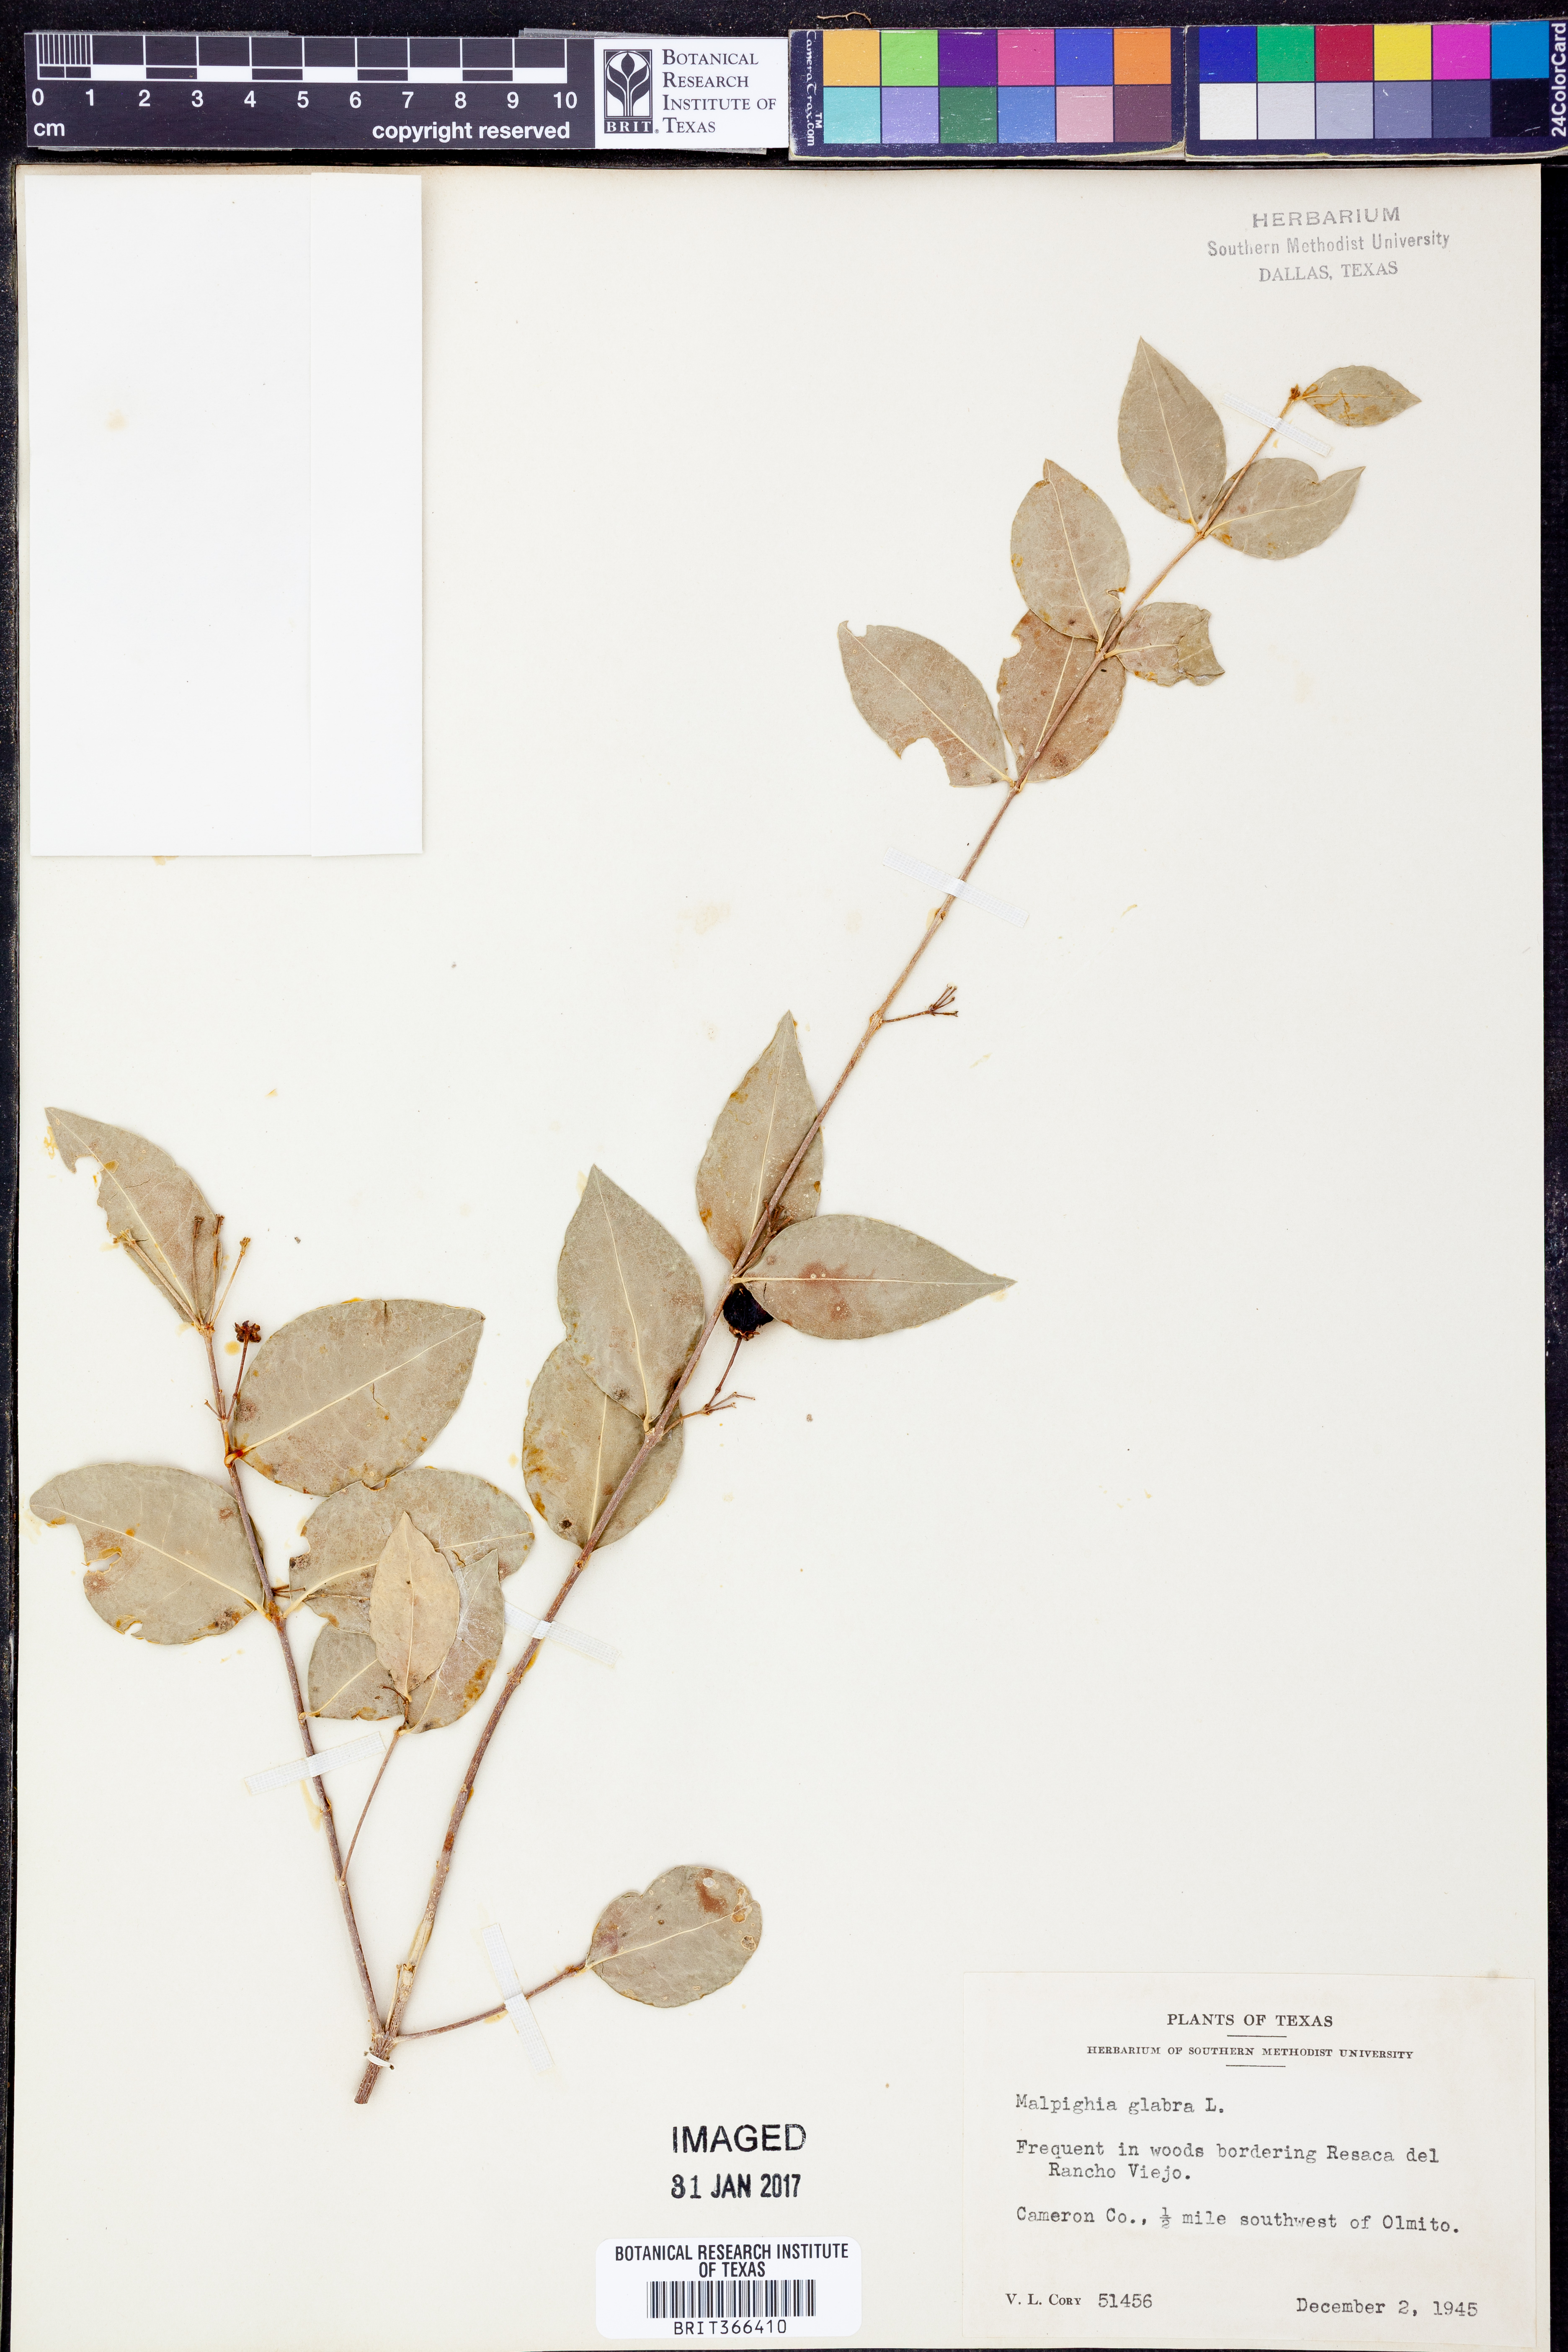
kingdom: Plantae
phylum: Tracheophyta
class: Magnoliopsida
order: Malpighiales
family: Malpighiaceae
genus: Malpighia
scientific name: Malpighia glabra
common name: Barbados cherry
